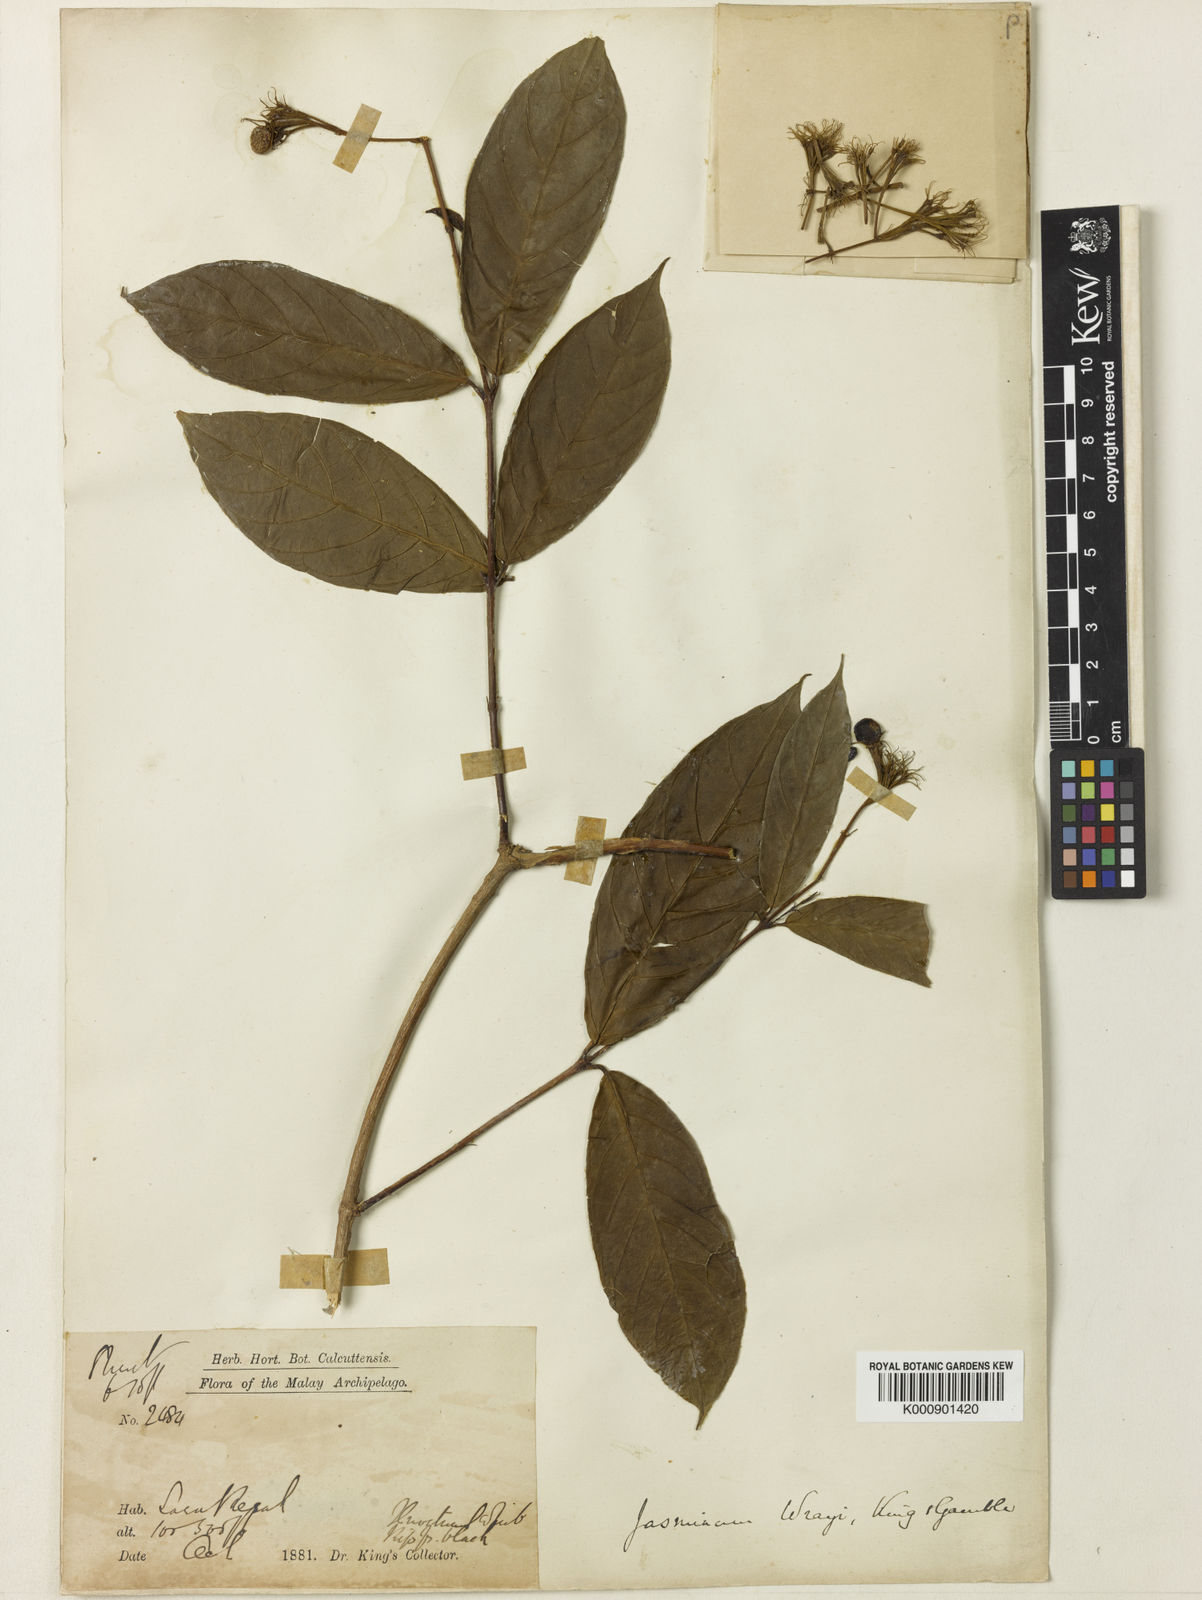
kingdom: Plantae
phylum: Tracheophyta
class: Magnoliopsida
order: Lamiales
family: Oleaceae
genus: Jasminum
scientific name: Jasminum wrayi
